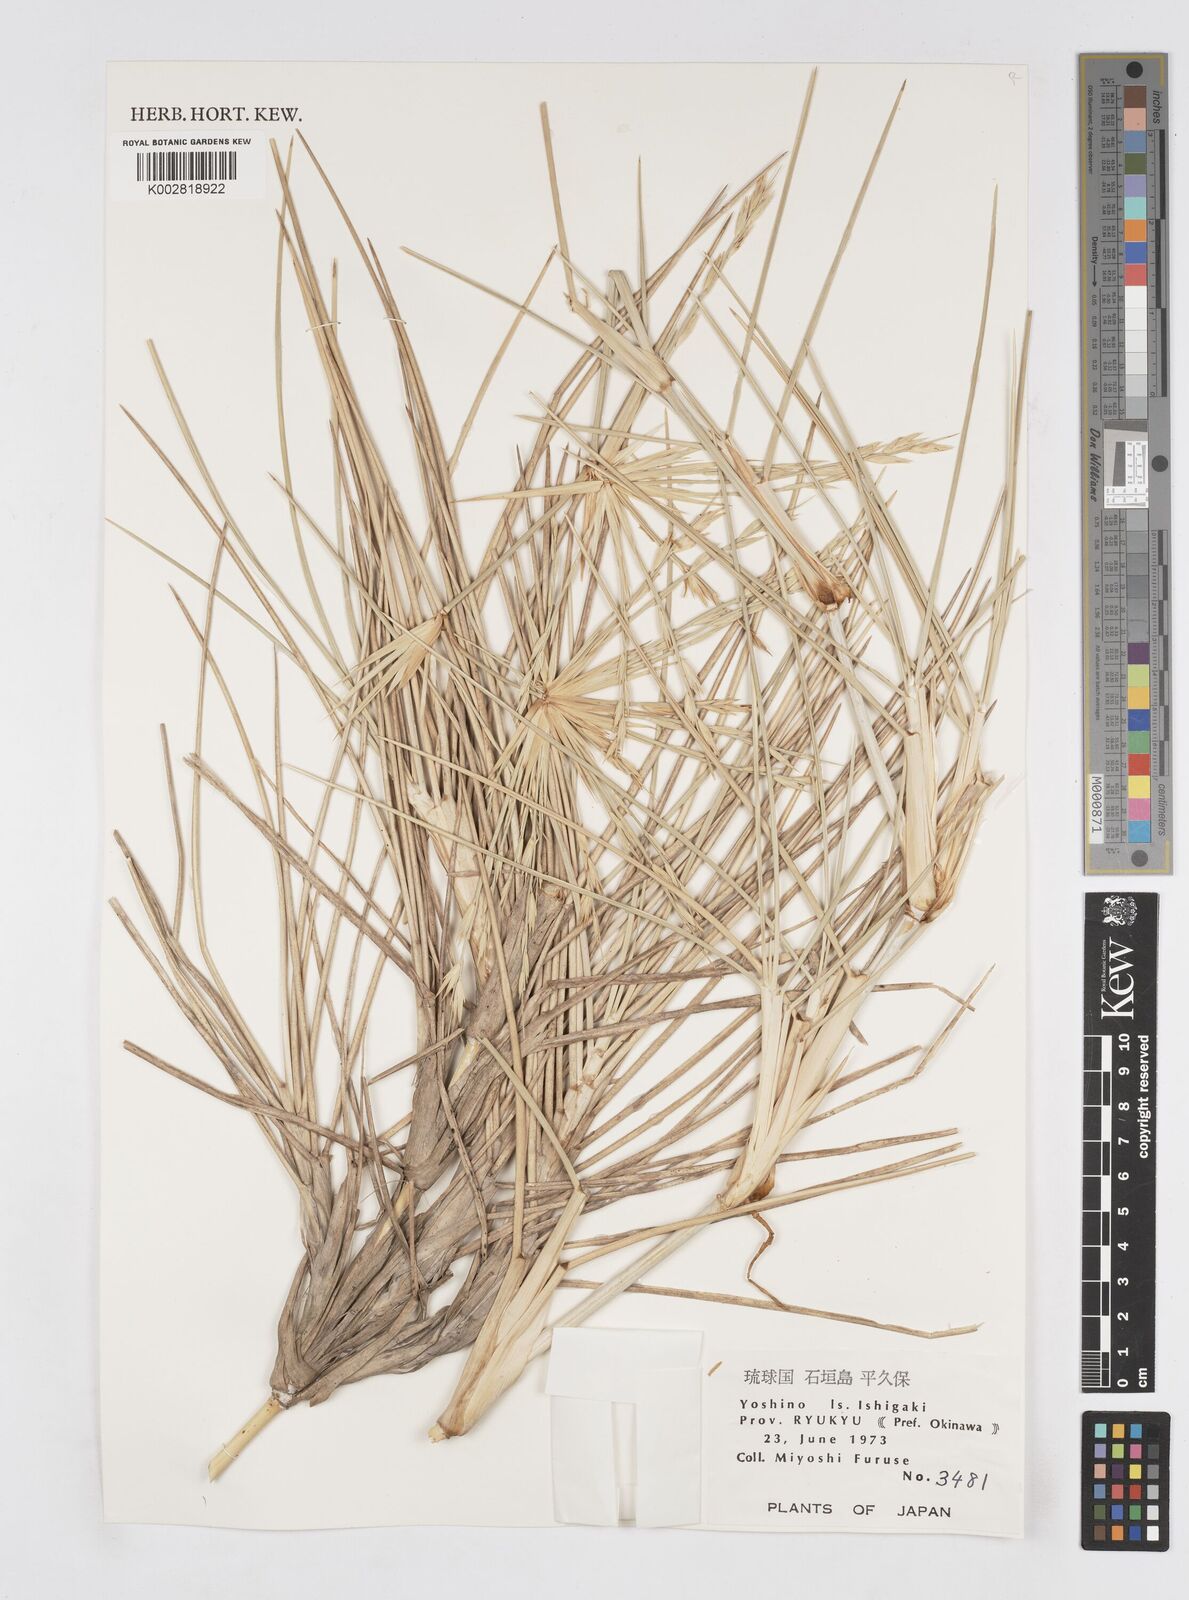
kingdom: Plantae
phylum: Tracheophyta
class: Liliopsida
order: Poales
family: Poaceae
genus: Spinifex
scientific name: Spinifex littoreus
